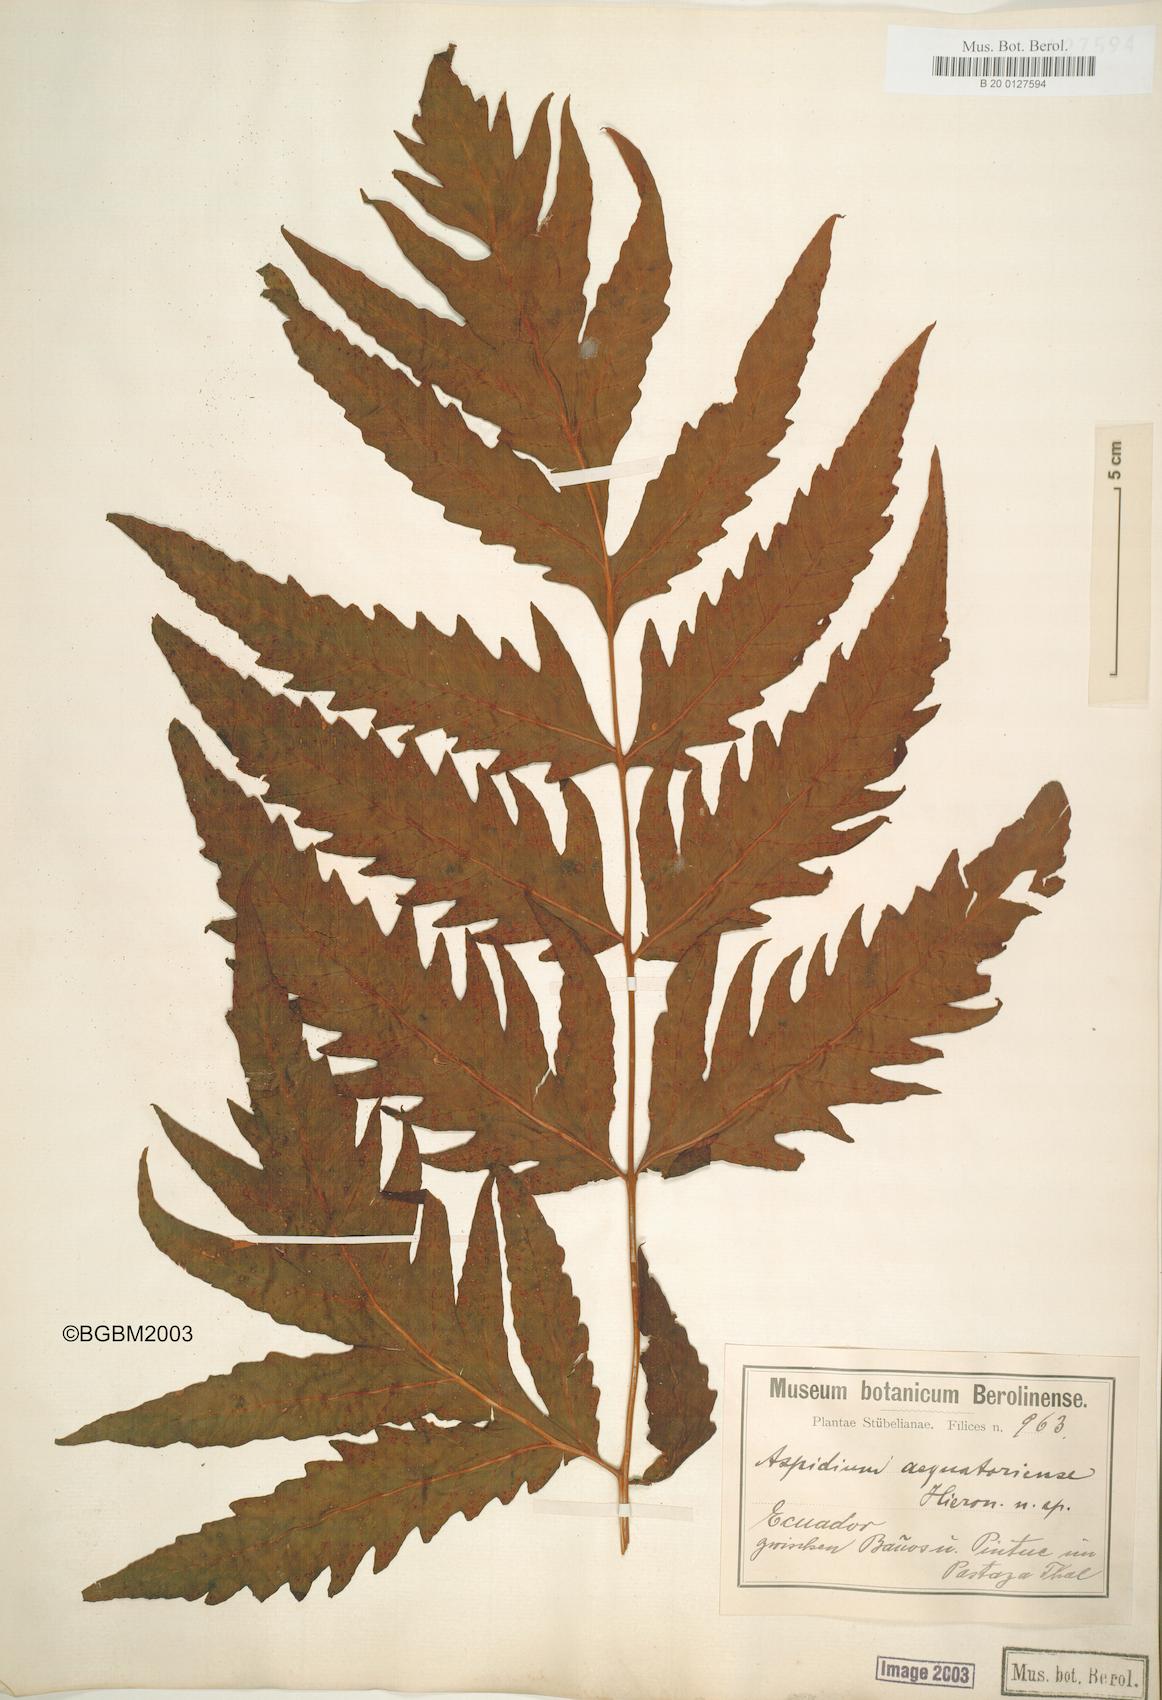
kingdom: Plantae
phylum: Tracheophyta
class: Polypodiopsida
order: Polypodiales
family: Tectariaceae
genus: Tectaria
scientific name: Tectaria aequatoriensis
